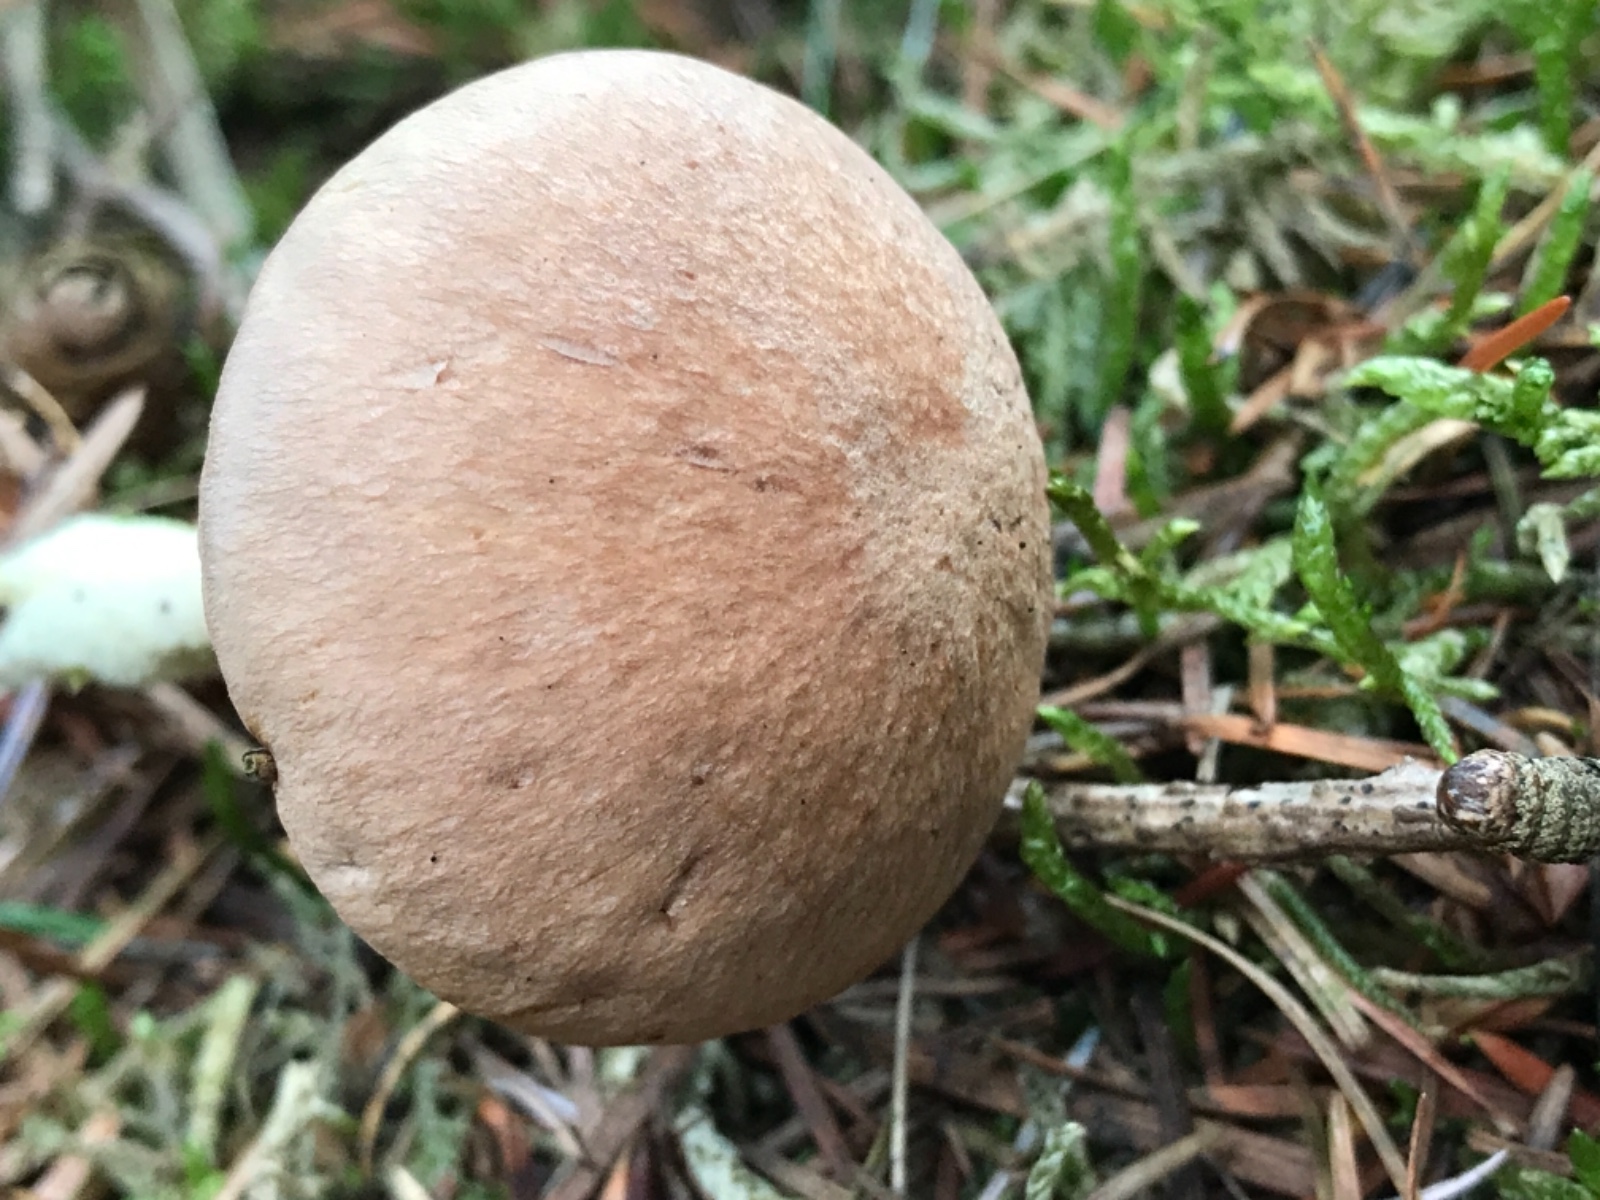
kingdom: Fungi
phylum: Basidiomycota
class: Agaricomycetes
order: Agaricales
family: Omphalotaceae
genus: Collybiopsis
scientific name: Collybiopsis peronata
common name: bestøvlet fladhat
